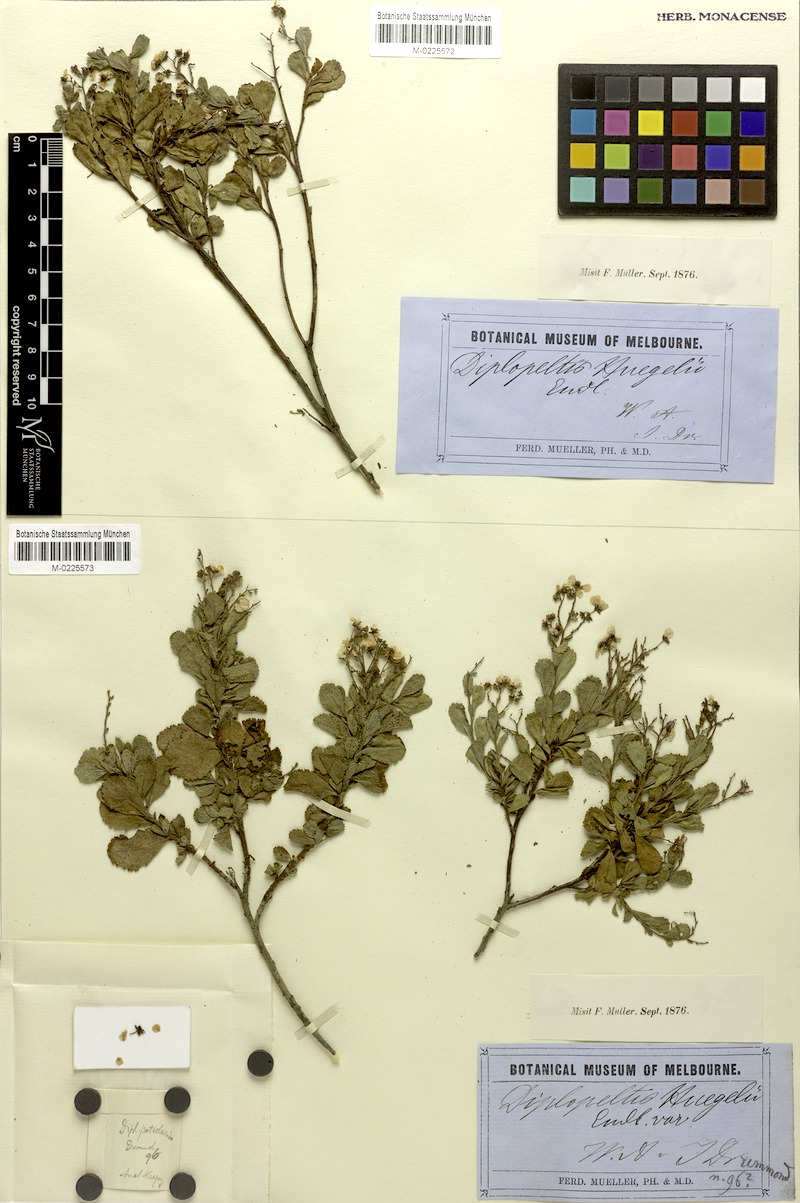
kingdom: Plantae
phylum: Tracheophyta
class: Magnoliopsida
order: Sapindales
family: Sapindaceae
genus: Dodonaea
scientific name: Dodonaea petiolaris
